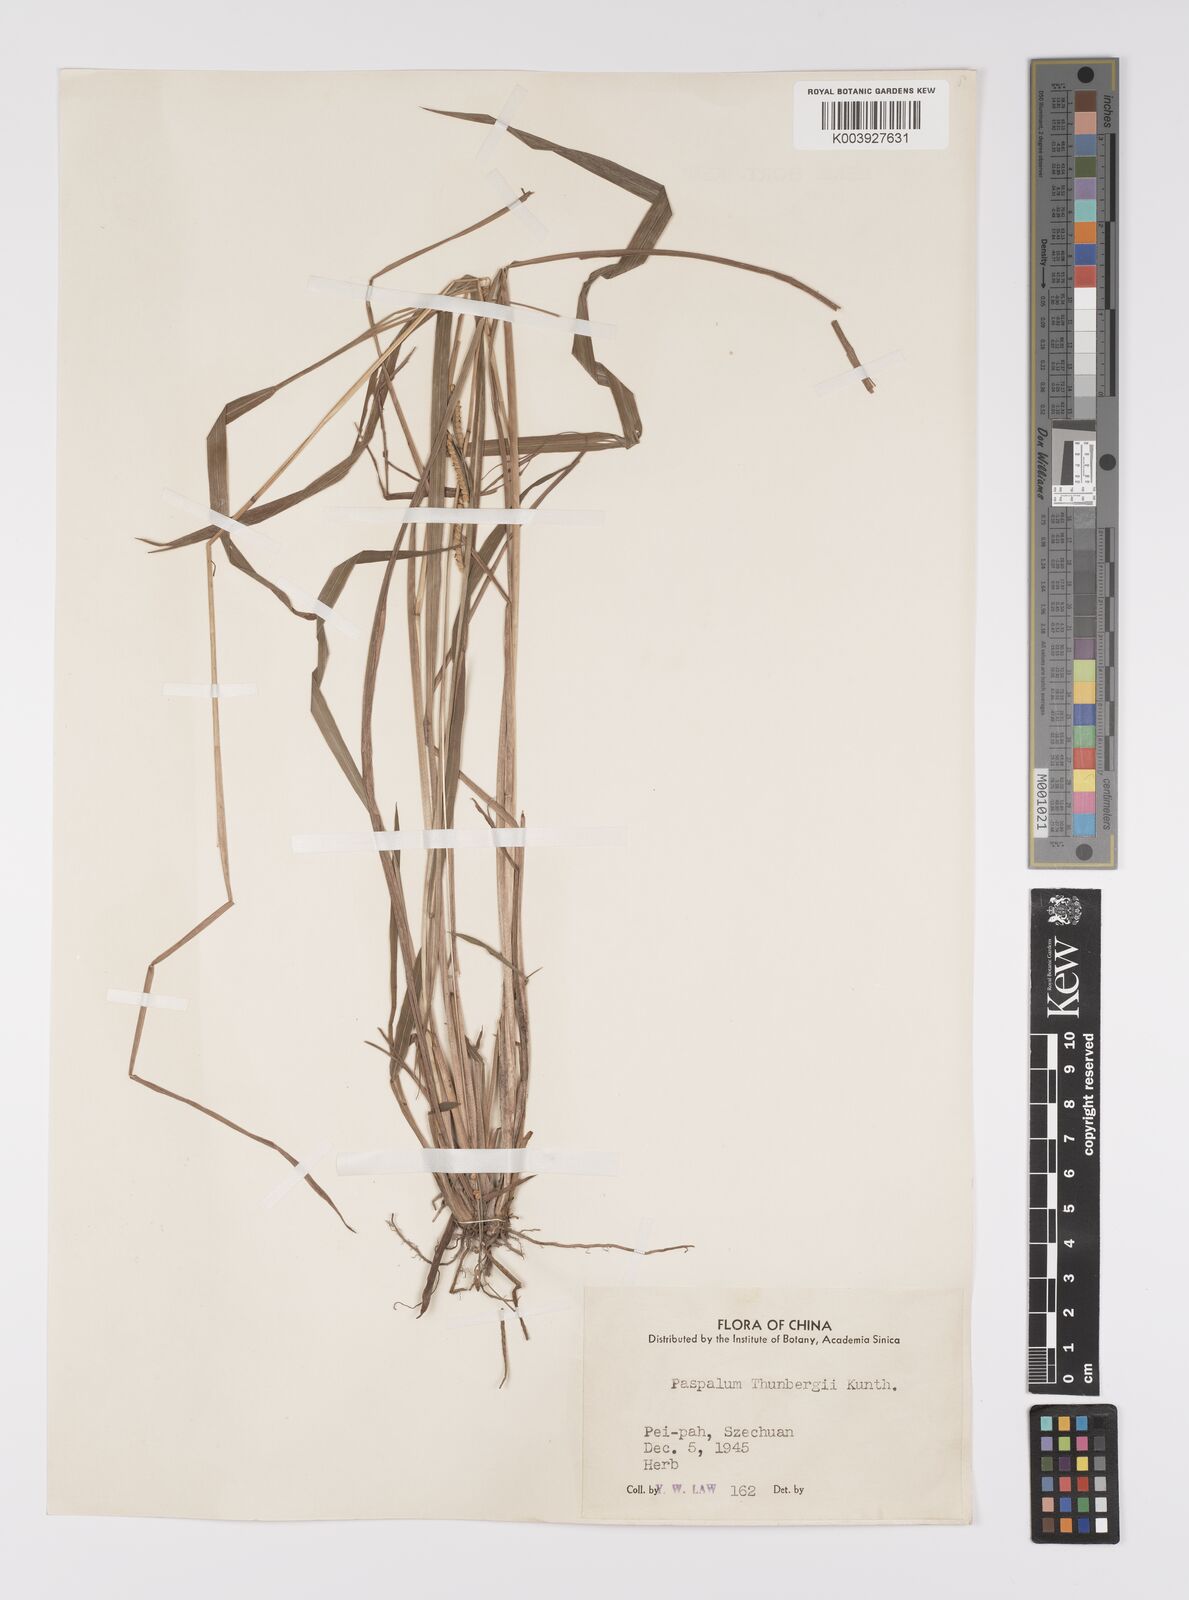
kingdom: Plantae
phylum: Tracheophyta
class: Liliopsida
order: Poales
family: Poaceae
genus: Paspalum
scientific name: Paspalum orbiculare
